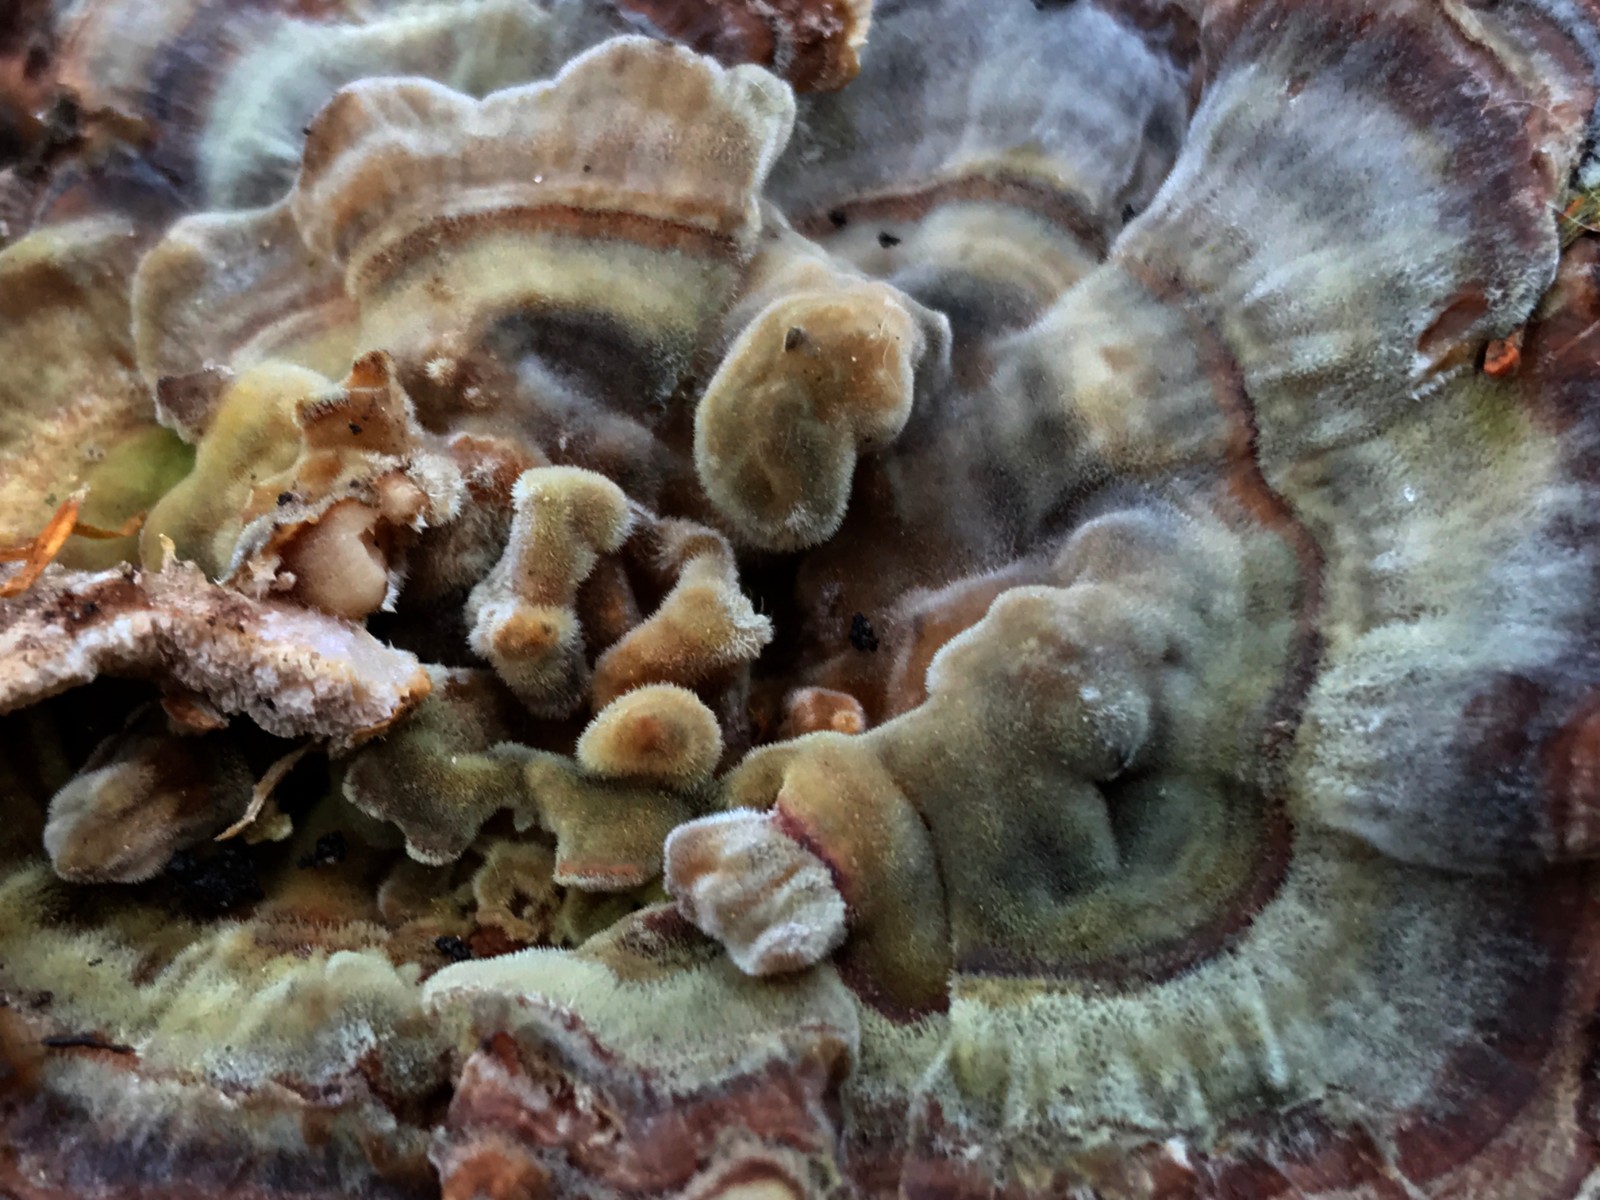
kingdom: Fungi
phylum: Basidiomycota
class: Agaricomycetes
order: Polyporales
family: Polyporaceae
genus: Trametes
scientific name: Trametes versicolor
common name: broget læderporesvamp
